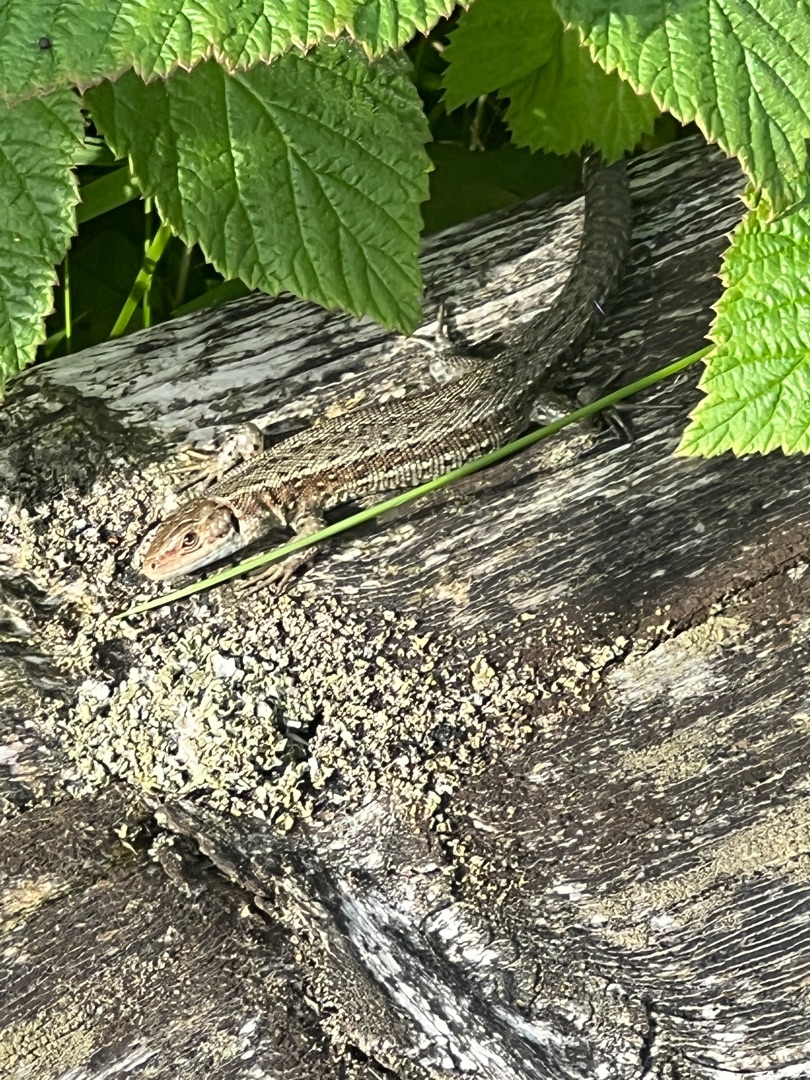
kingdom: Animalia
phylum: Chordata
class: Squamata
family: Lacertidae
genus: Zootoca
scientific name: Zootoca vivipara
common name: Skovfirben
